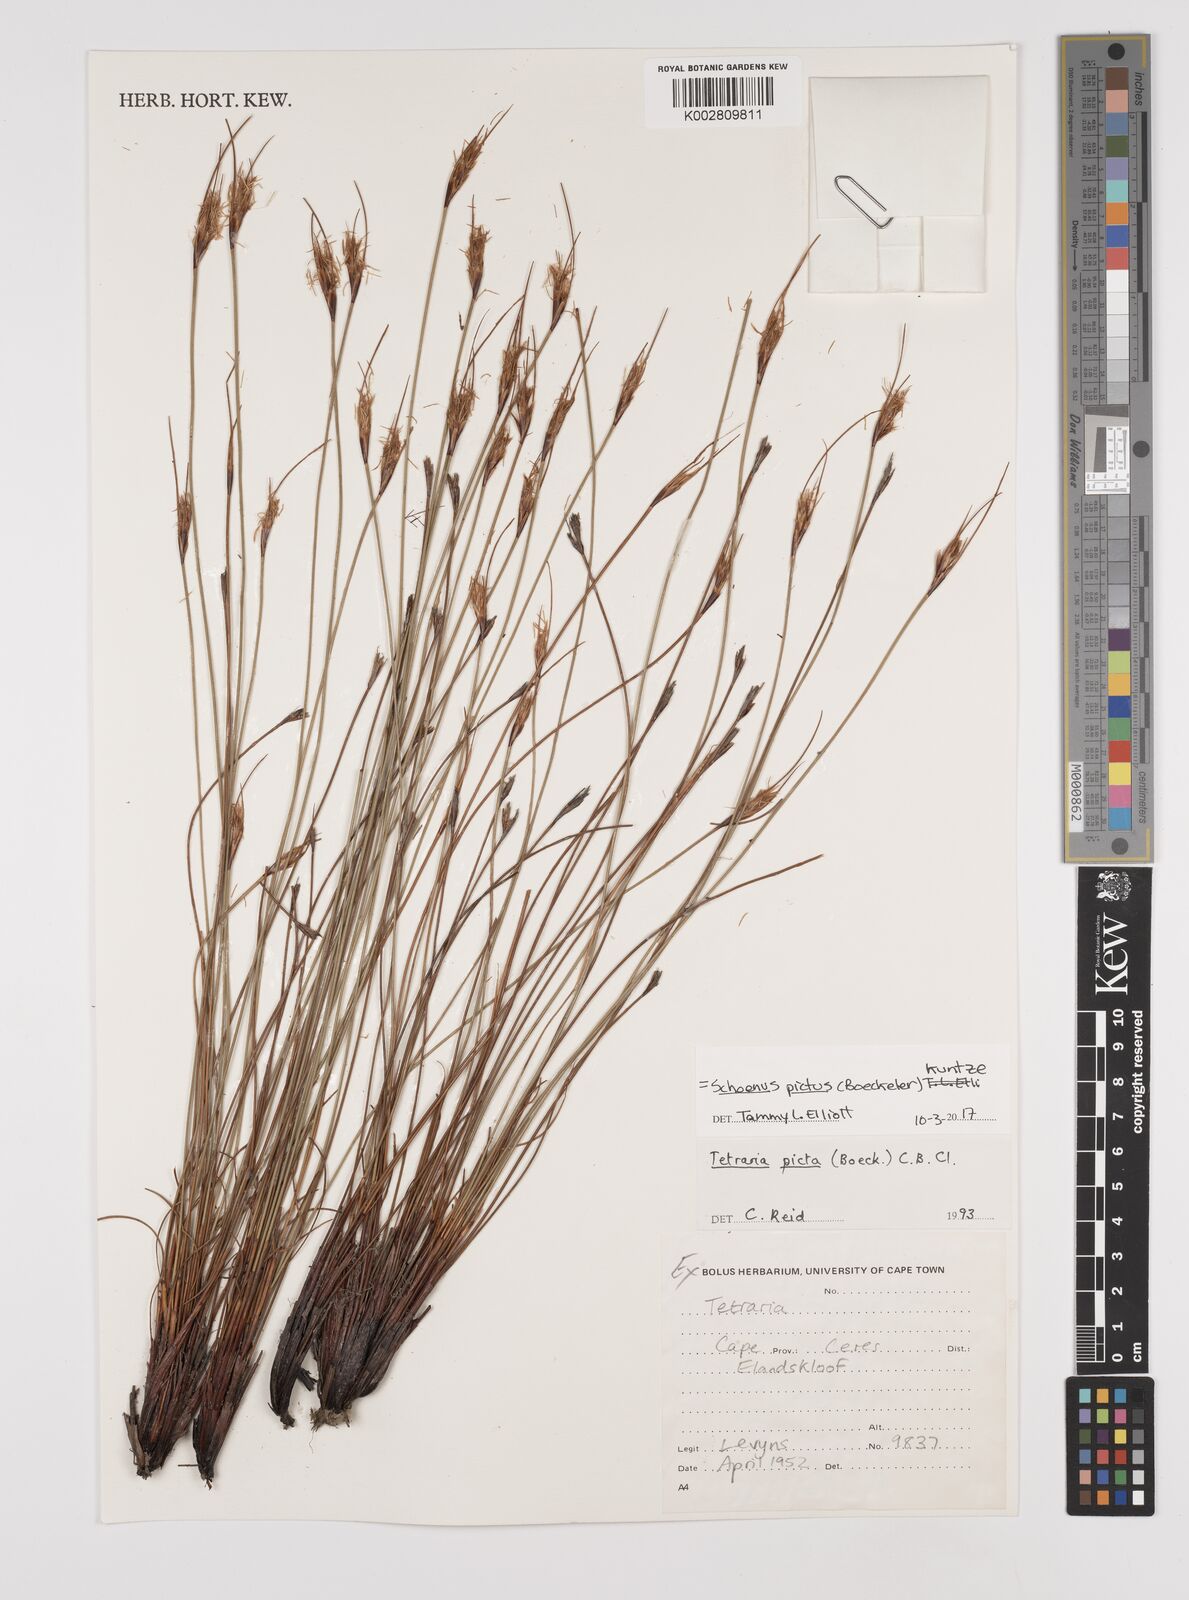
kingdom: Plantae
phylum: Tracheophyta
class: Liliopsida
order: Poales
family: Cyperaceae
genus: Schoenus
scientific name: Schoenus pictus
